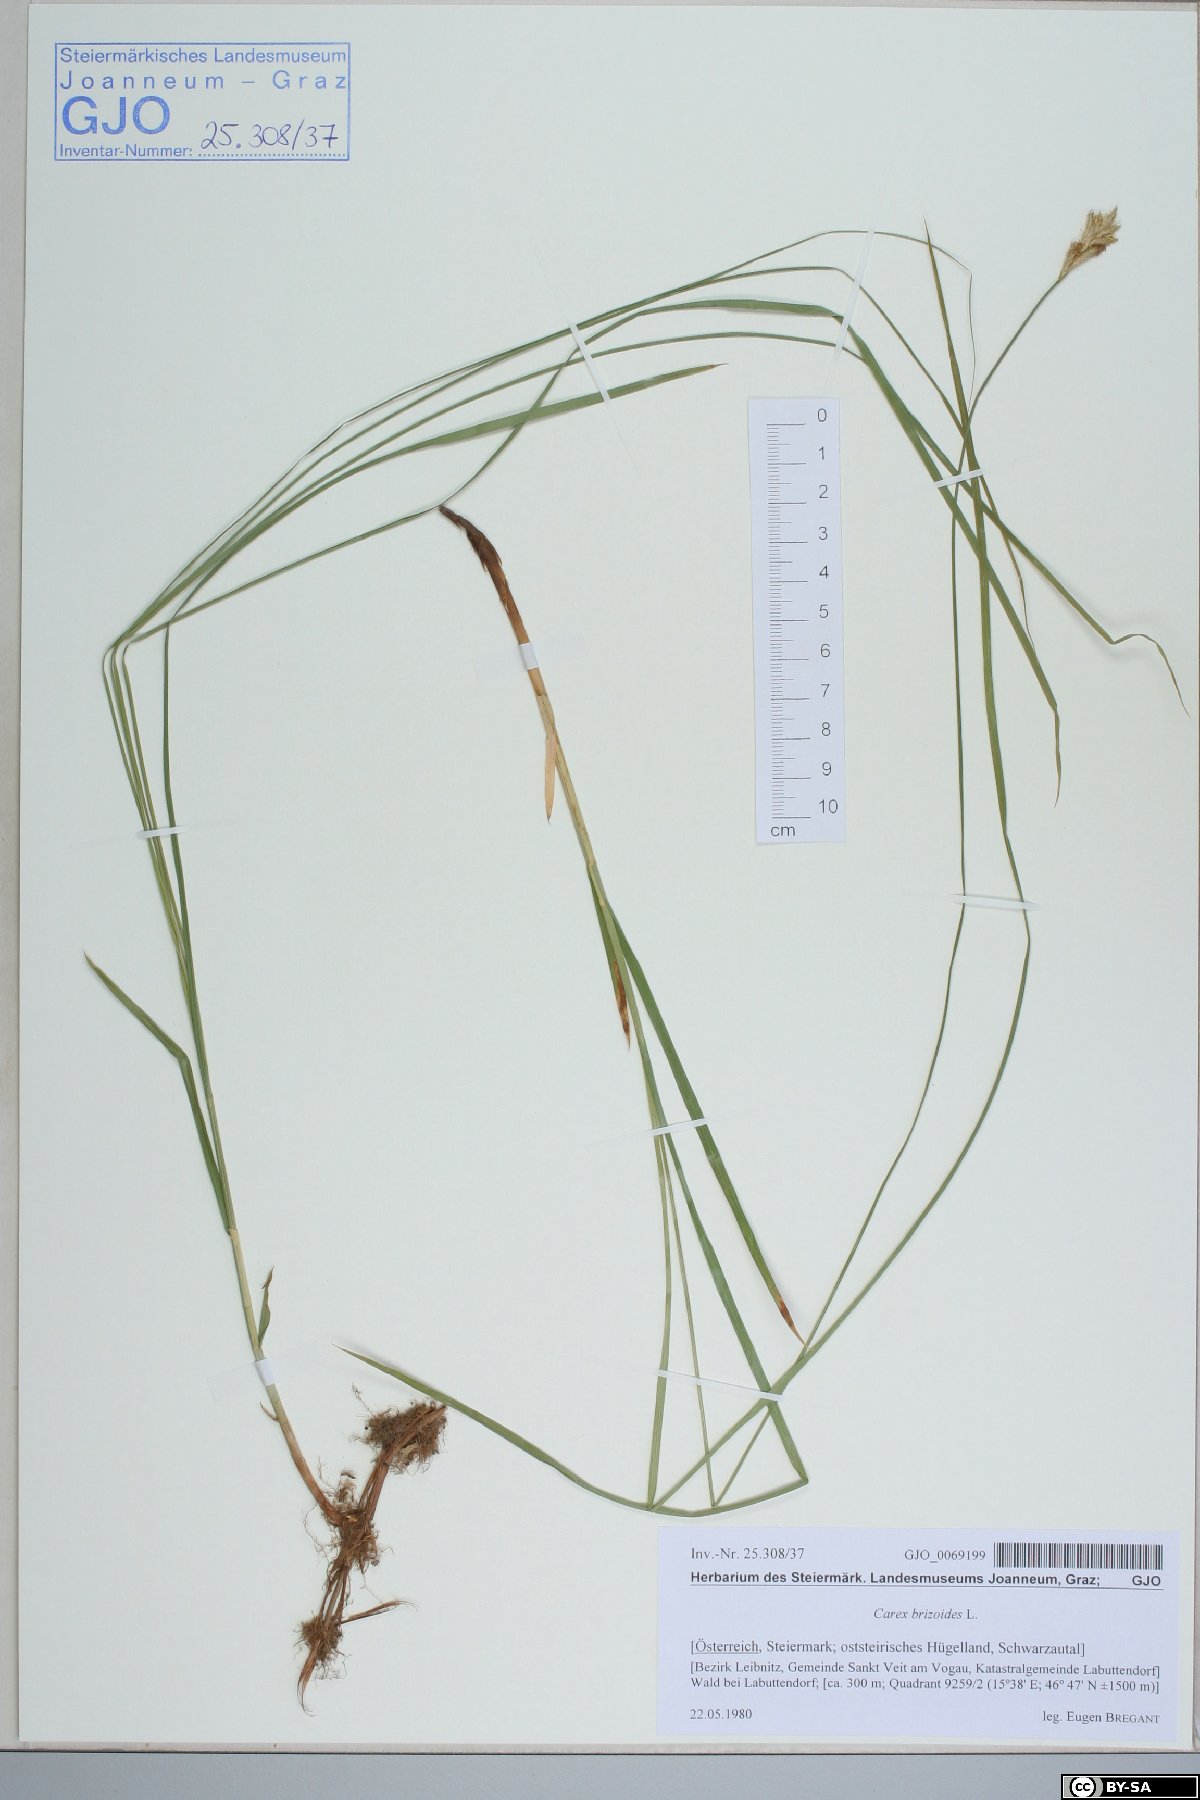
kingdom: Plantae
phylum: Tracheophyta
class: Liliopsida
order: Poales
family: Cyperaceae
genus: Carex
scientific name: Carex brizoides
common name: Quaking-grass sedge
